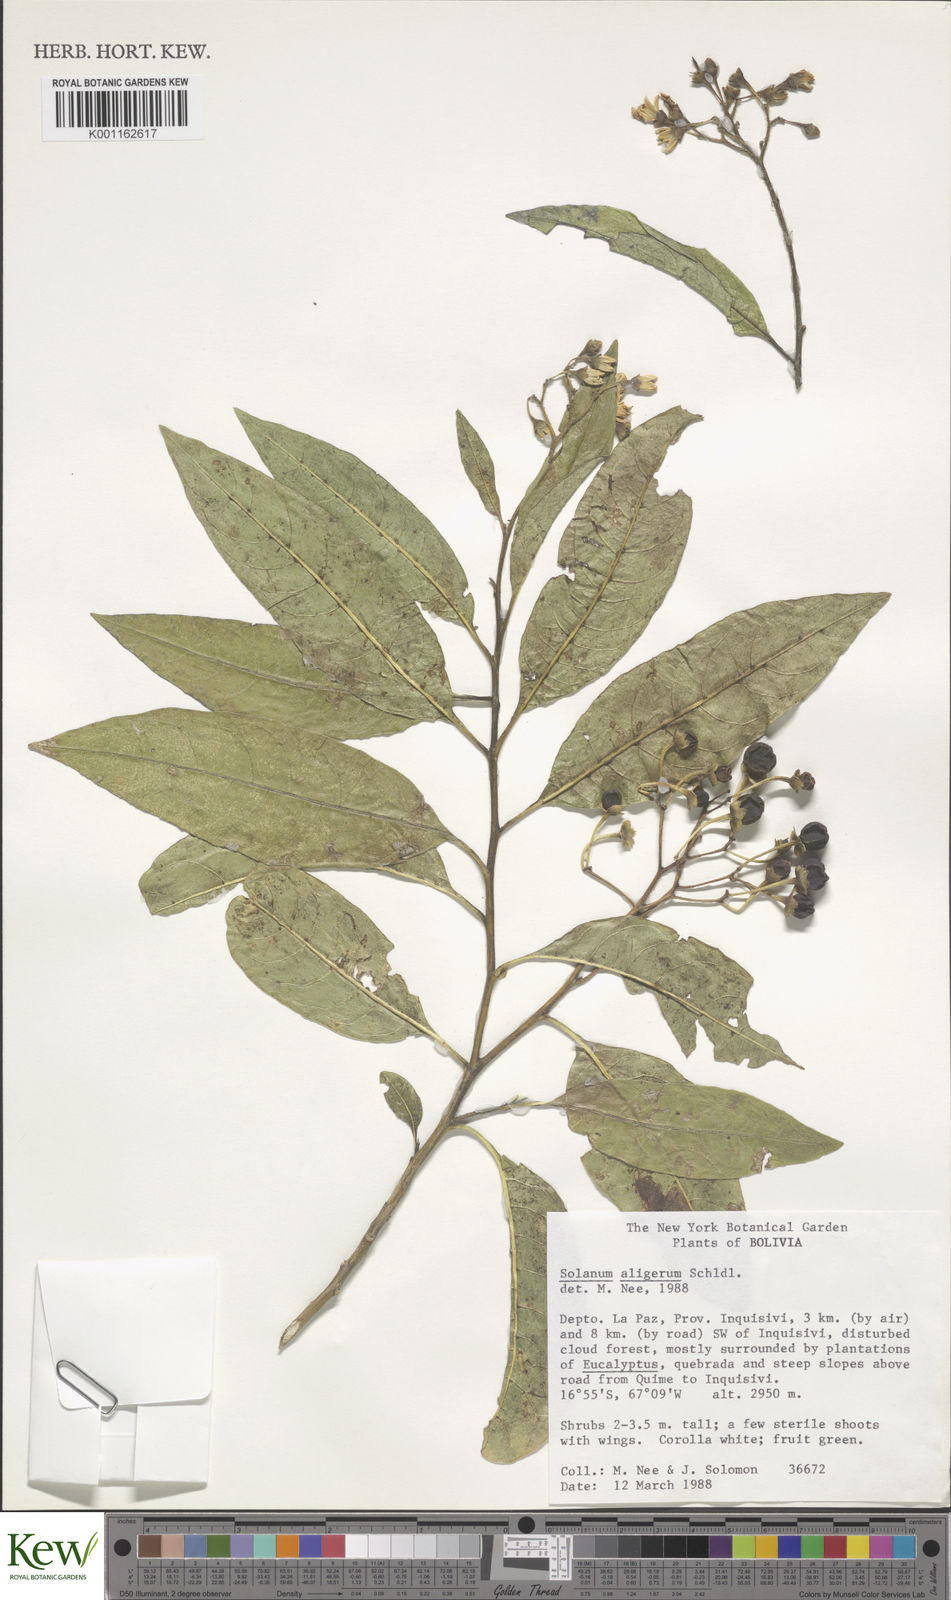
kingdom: Plantae
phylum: Tracheophyta
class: Magnoliopsida
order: Solanales
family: Solanaceae
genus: Solanum
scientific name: Solanum aligerum
